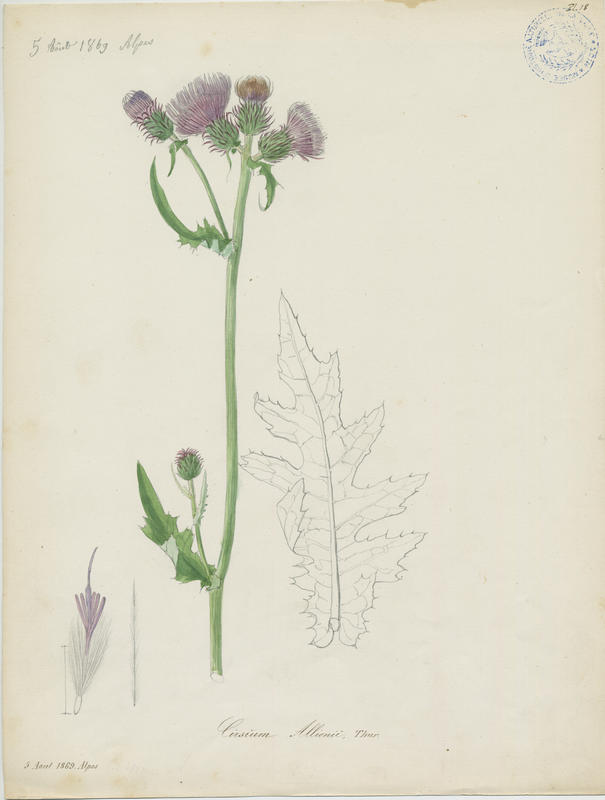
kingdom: Plantae
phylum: Tracheophyta
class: Magnoliopsida
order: Asterales
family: Asteraceae
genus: Cirsium
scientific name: Cirsium alsophilum
